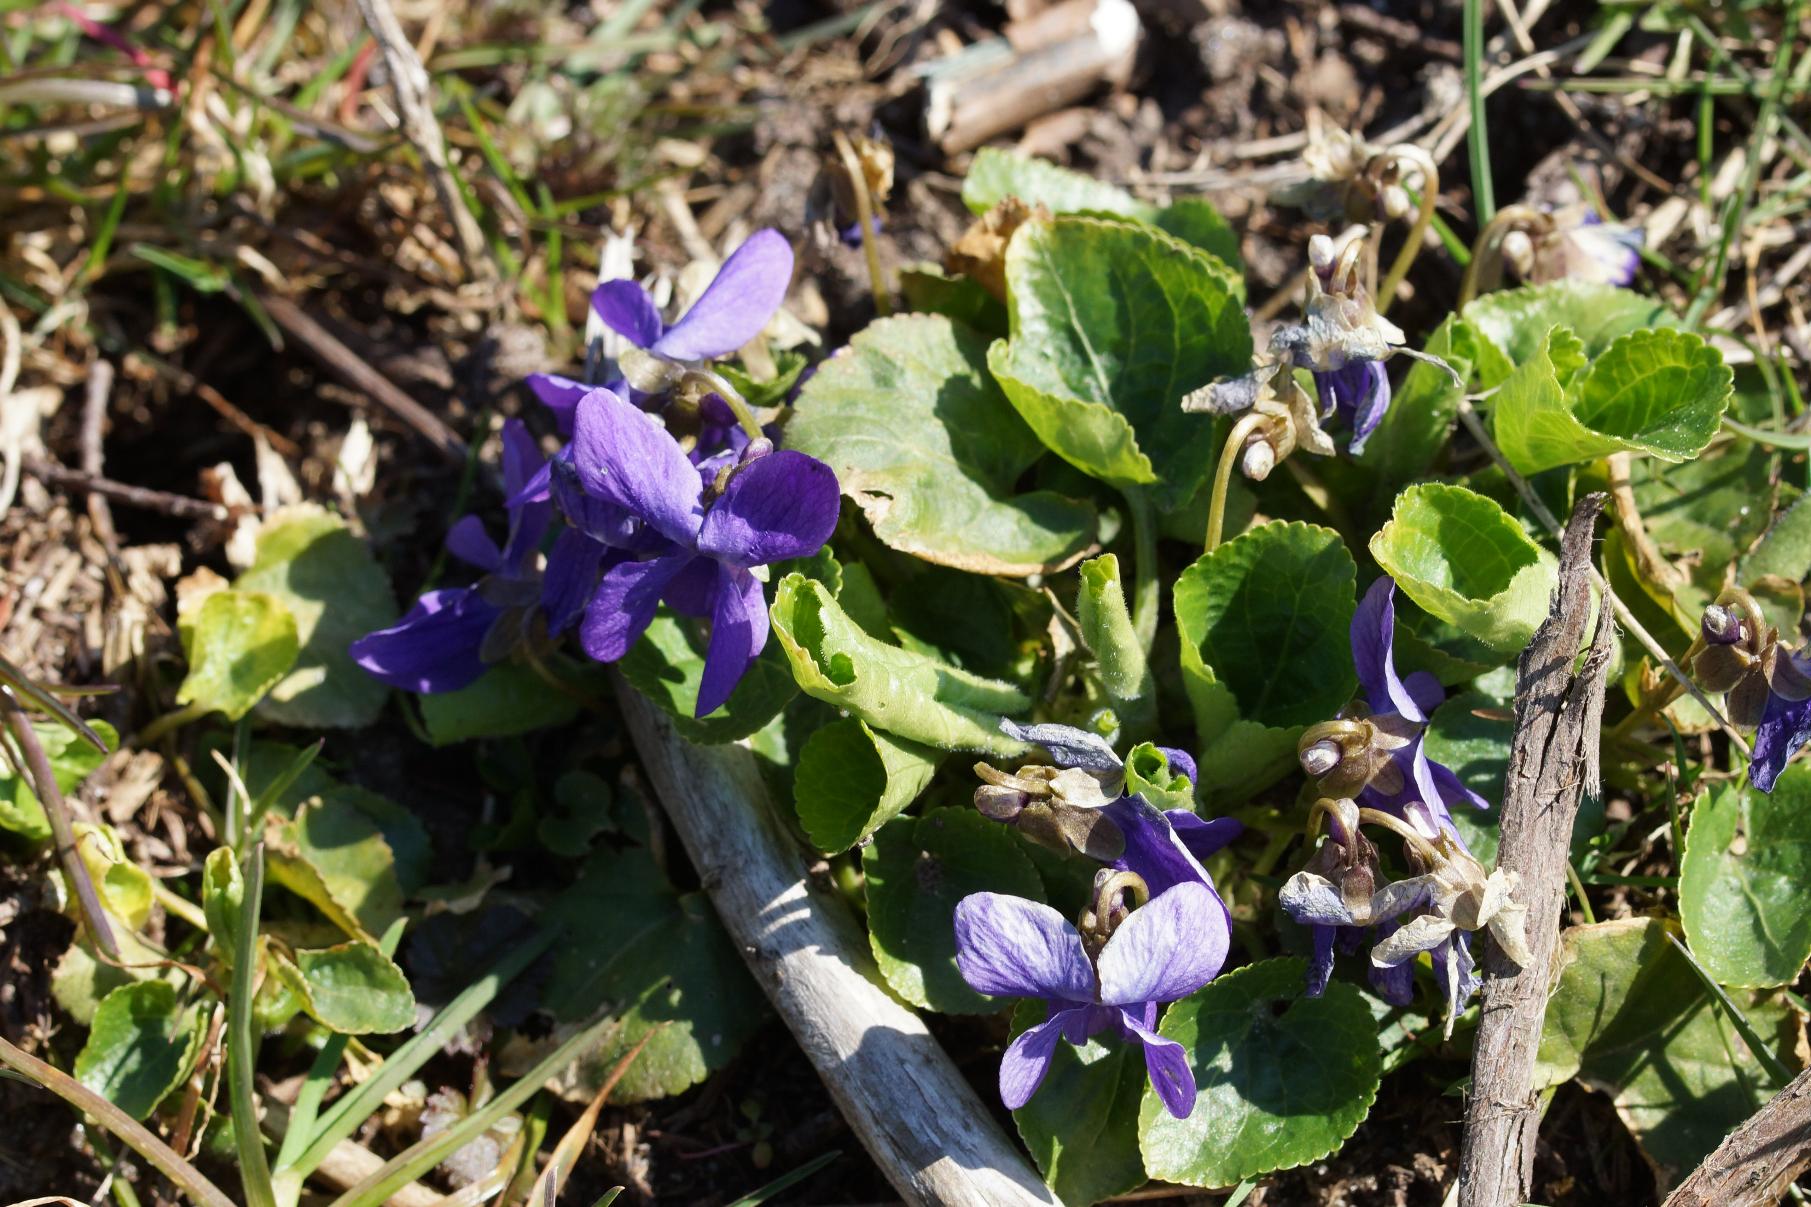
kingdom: Plantae
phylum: Tracheophyta
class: Magnoliopsida
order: Malpighiales
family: Violaceae
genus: Viola
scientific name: Viola odorata
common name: Marts-viol
